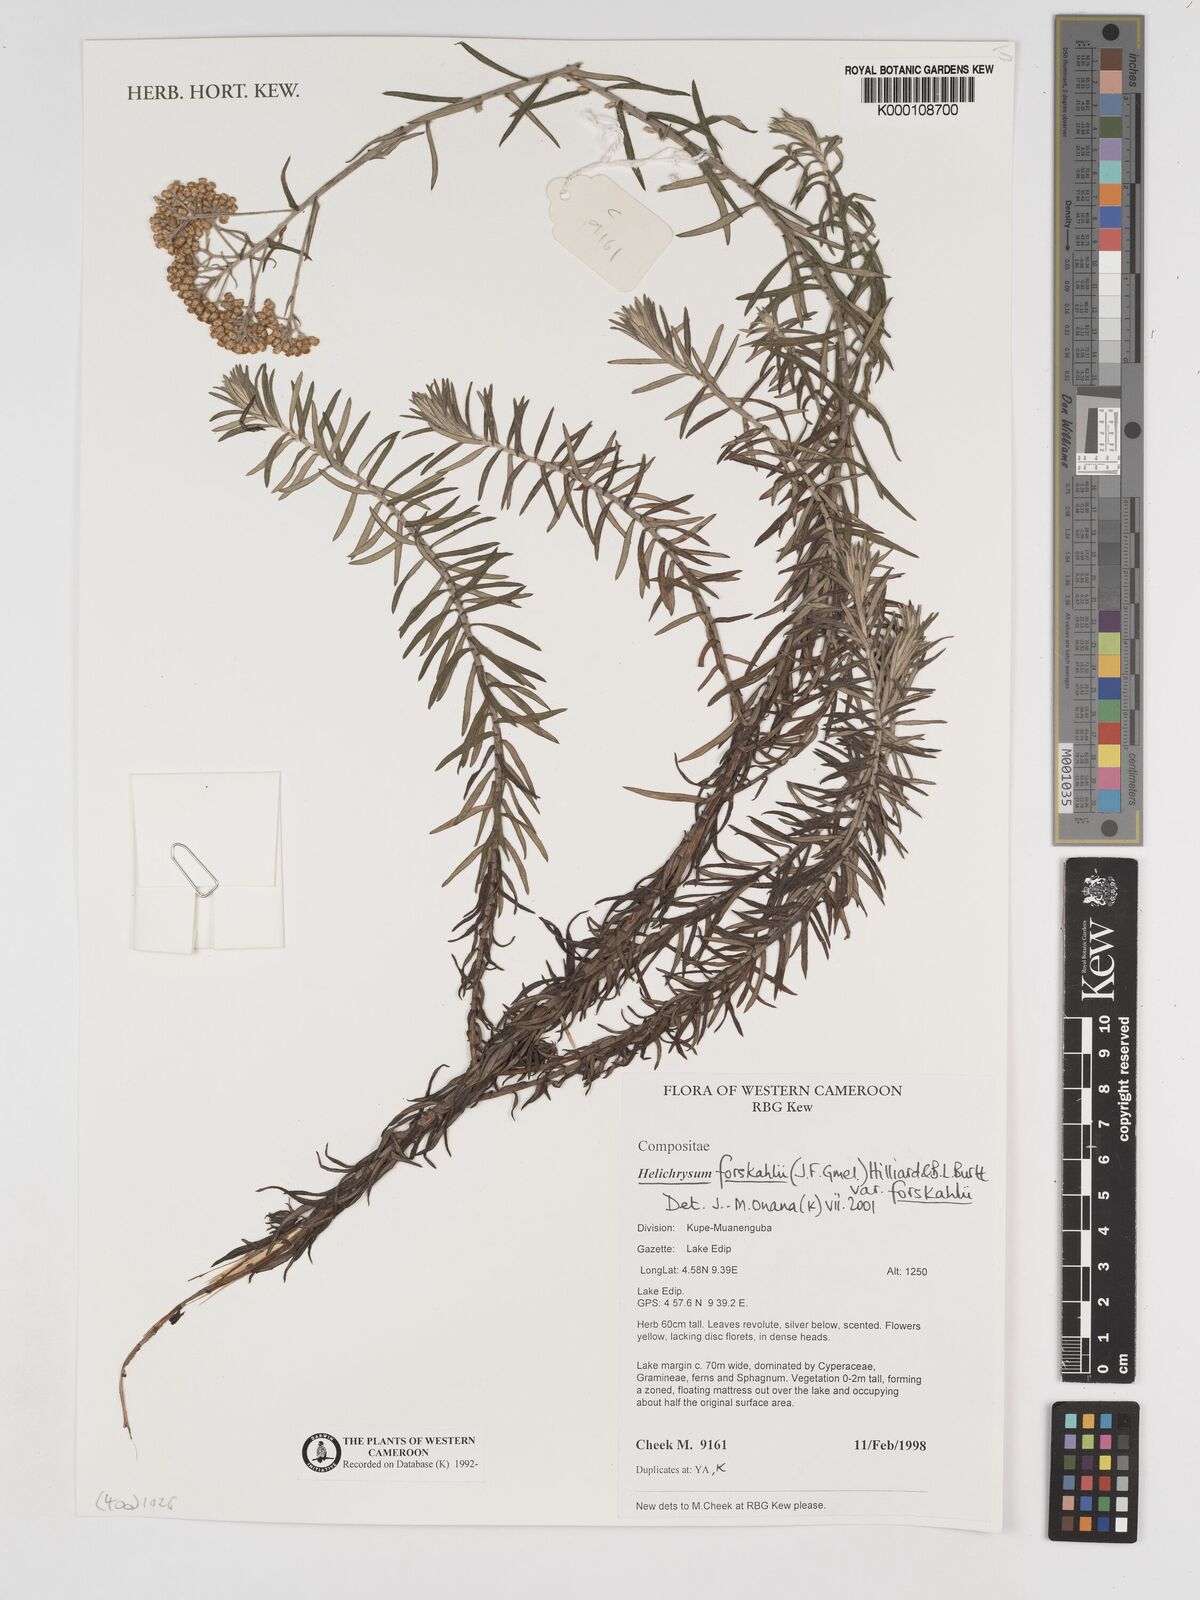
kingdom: Plantae
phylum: Tracheophyta
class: Magnoliopsida
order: Asterales
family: Asteraceae
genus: Helichrysum
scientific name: Helichrysum forskahlii
